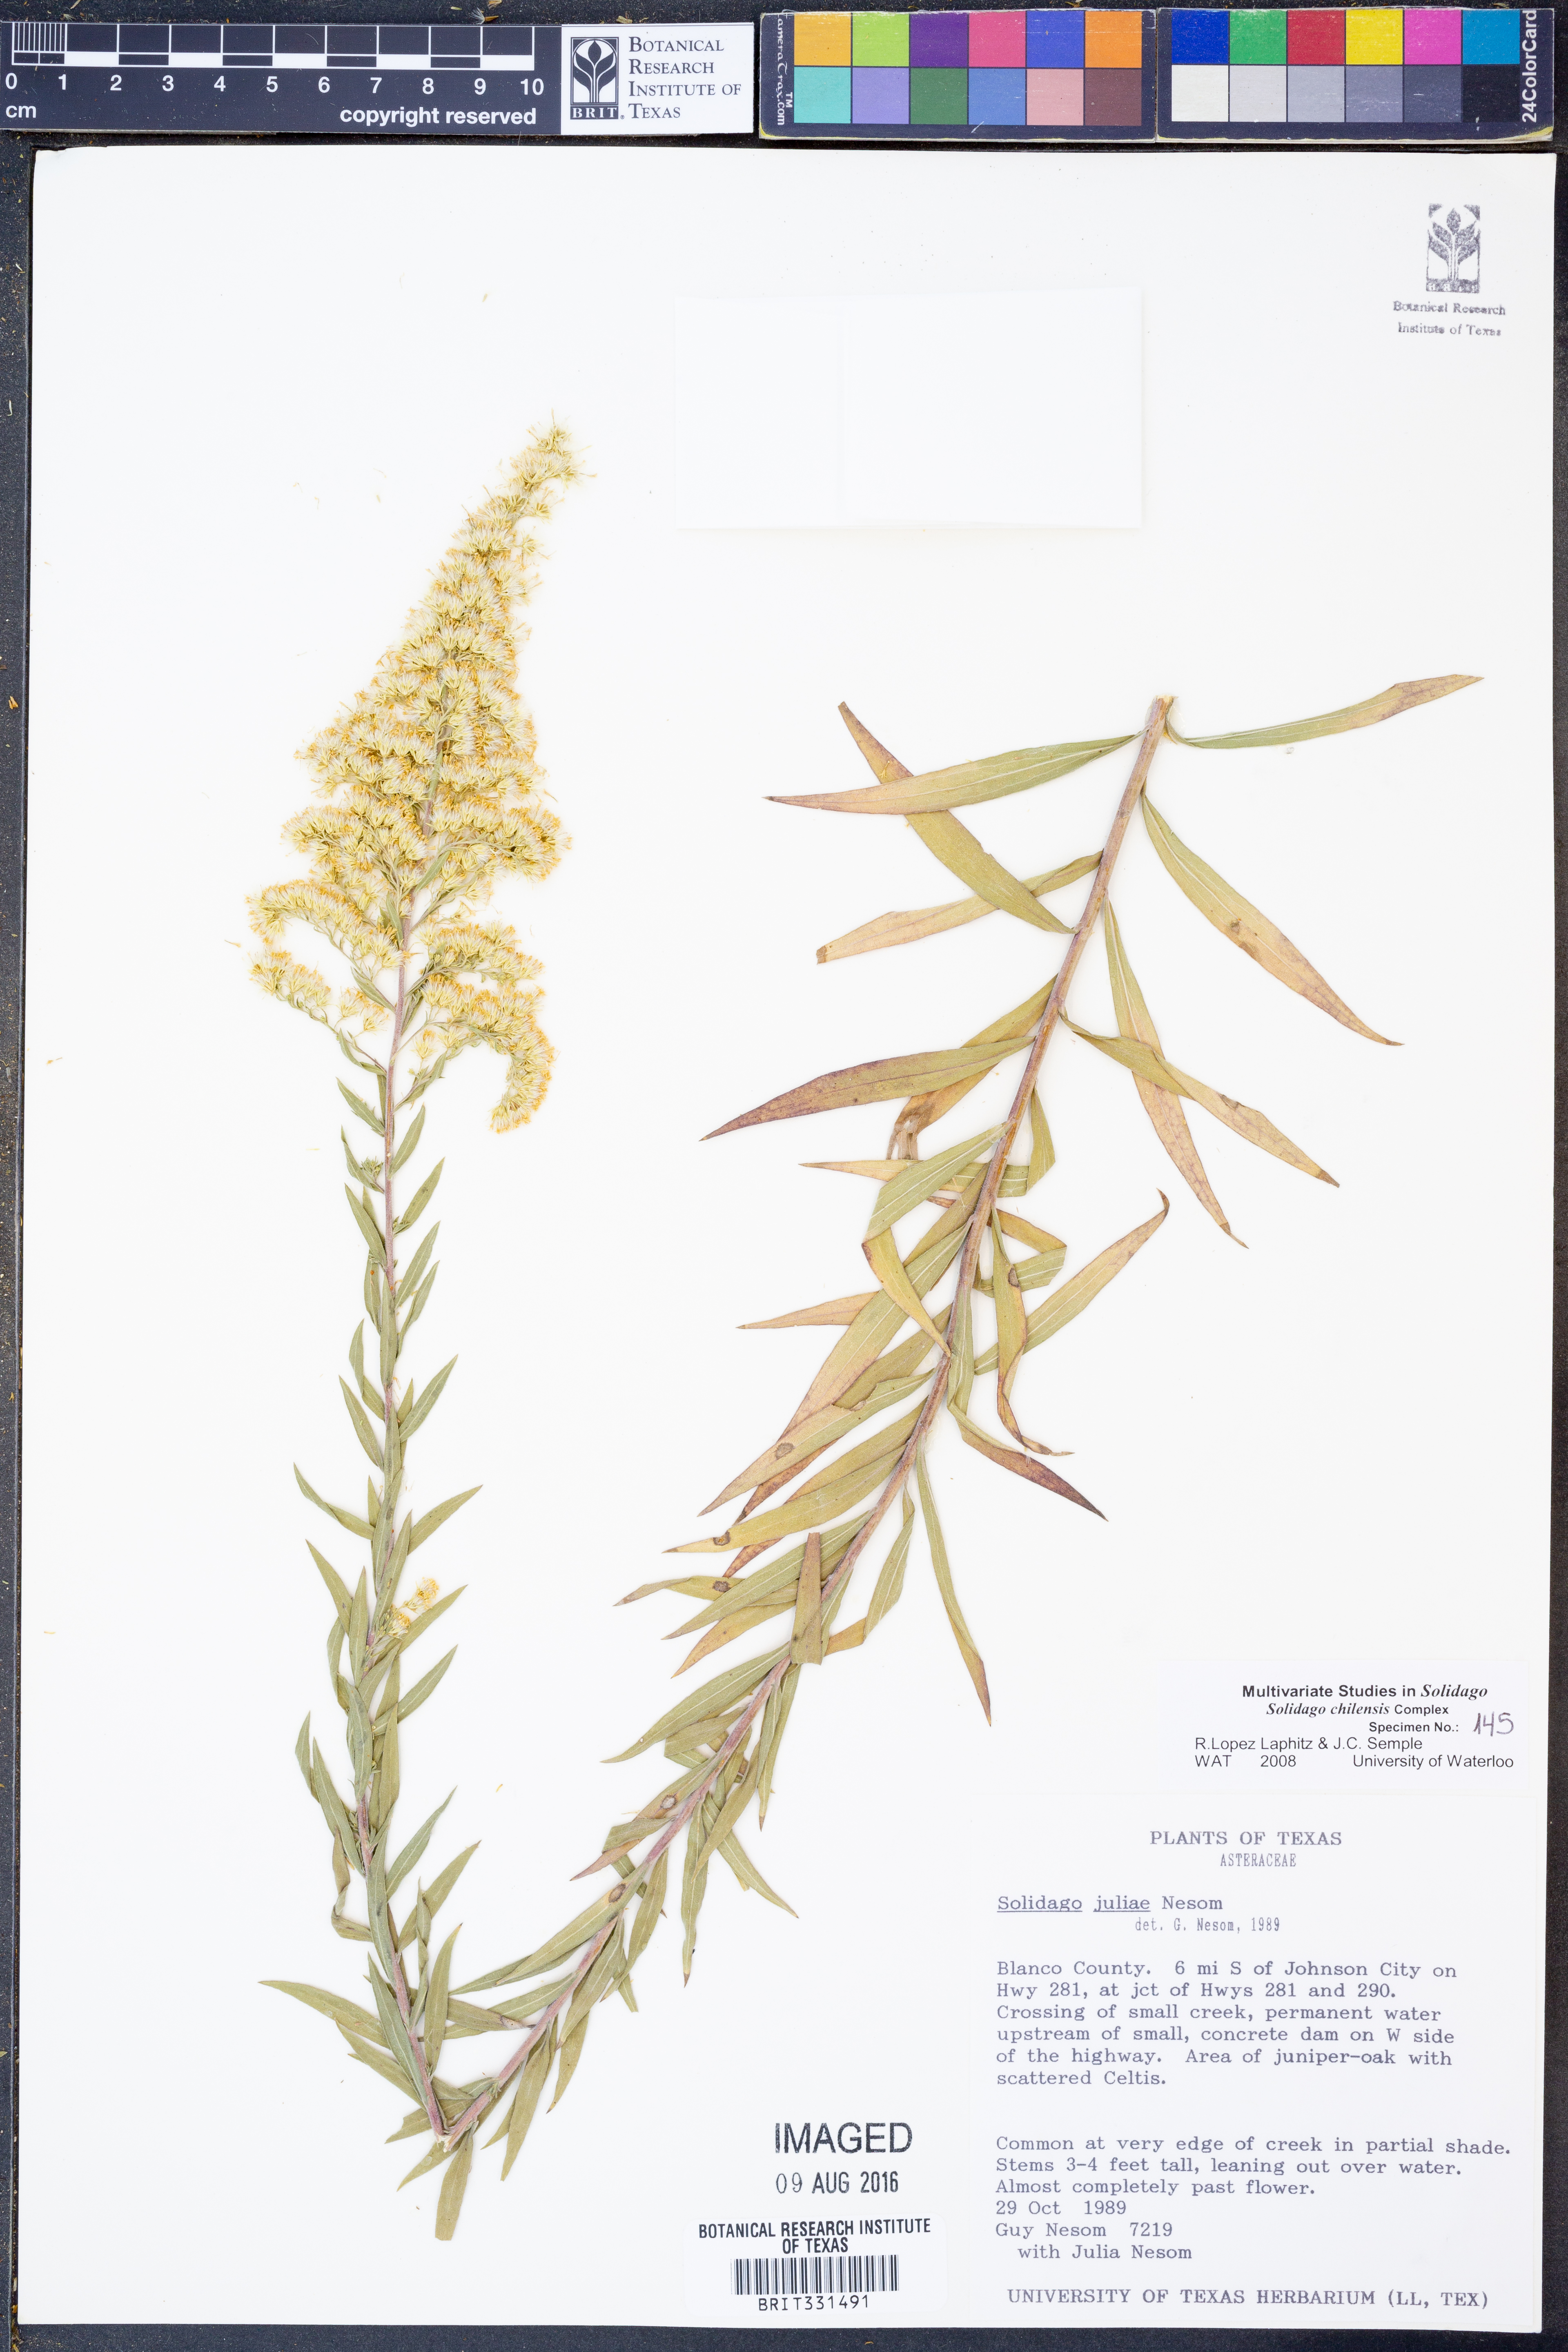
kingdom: Plantae
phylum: Tracheophyta
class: Magnoliopsida
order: Asterales
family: Asteraceae
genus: Solidago
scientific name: Solidago juliae
